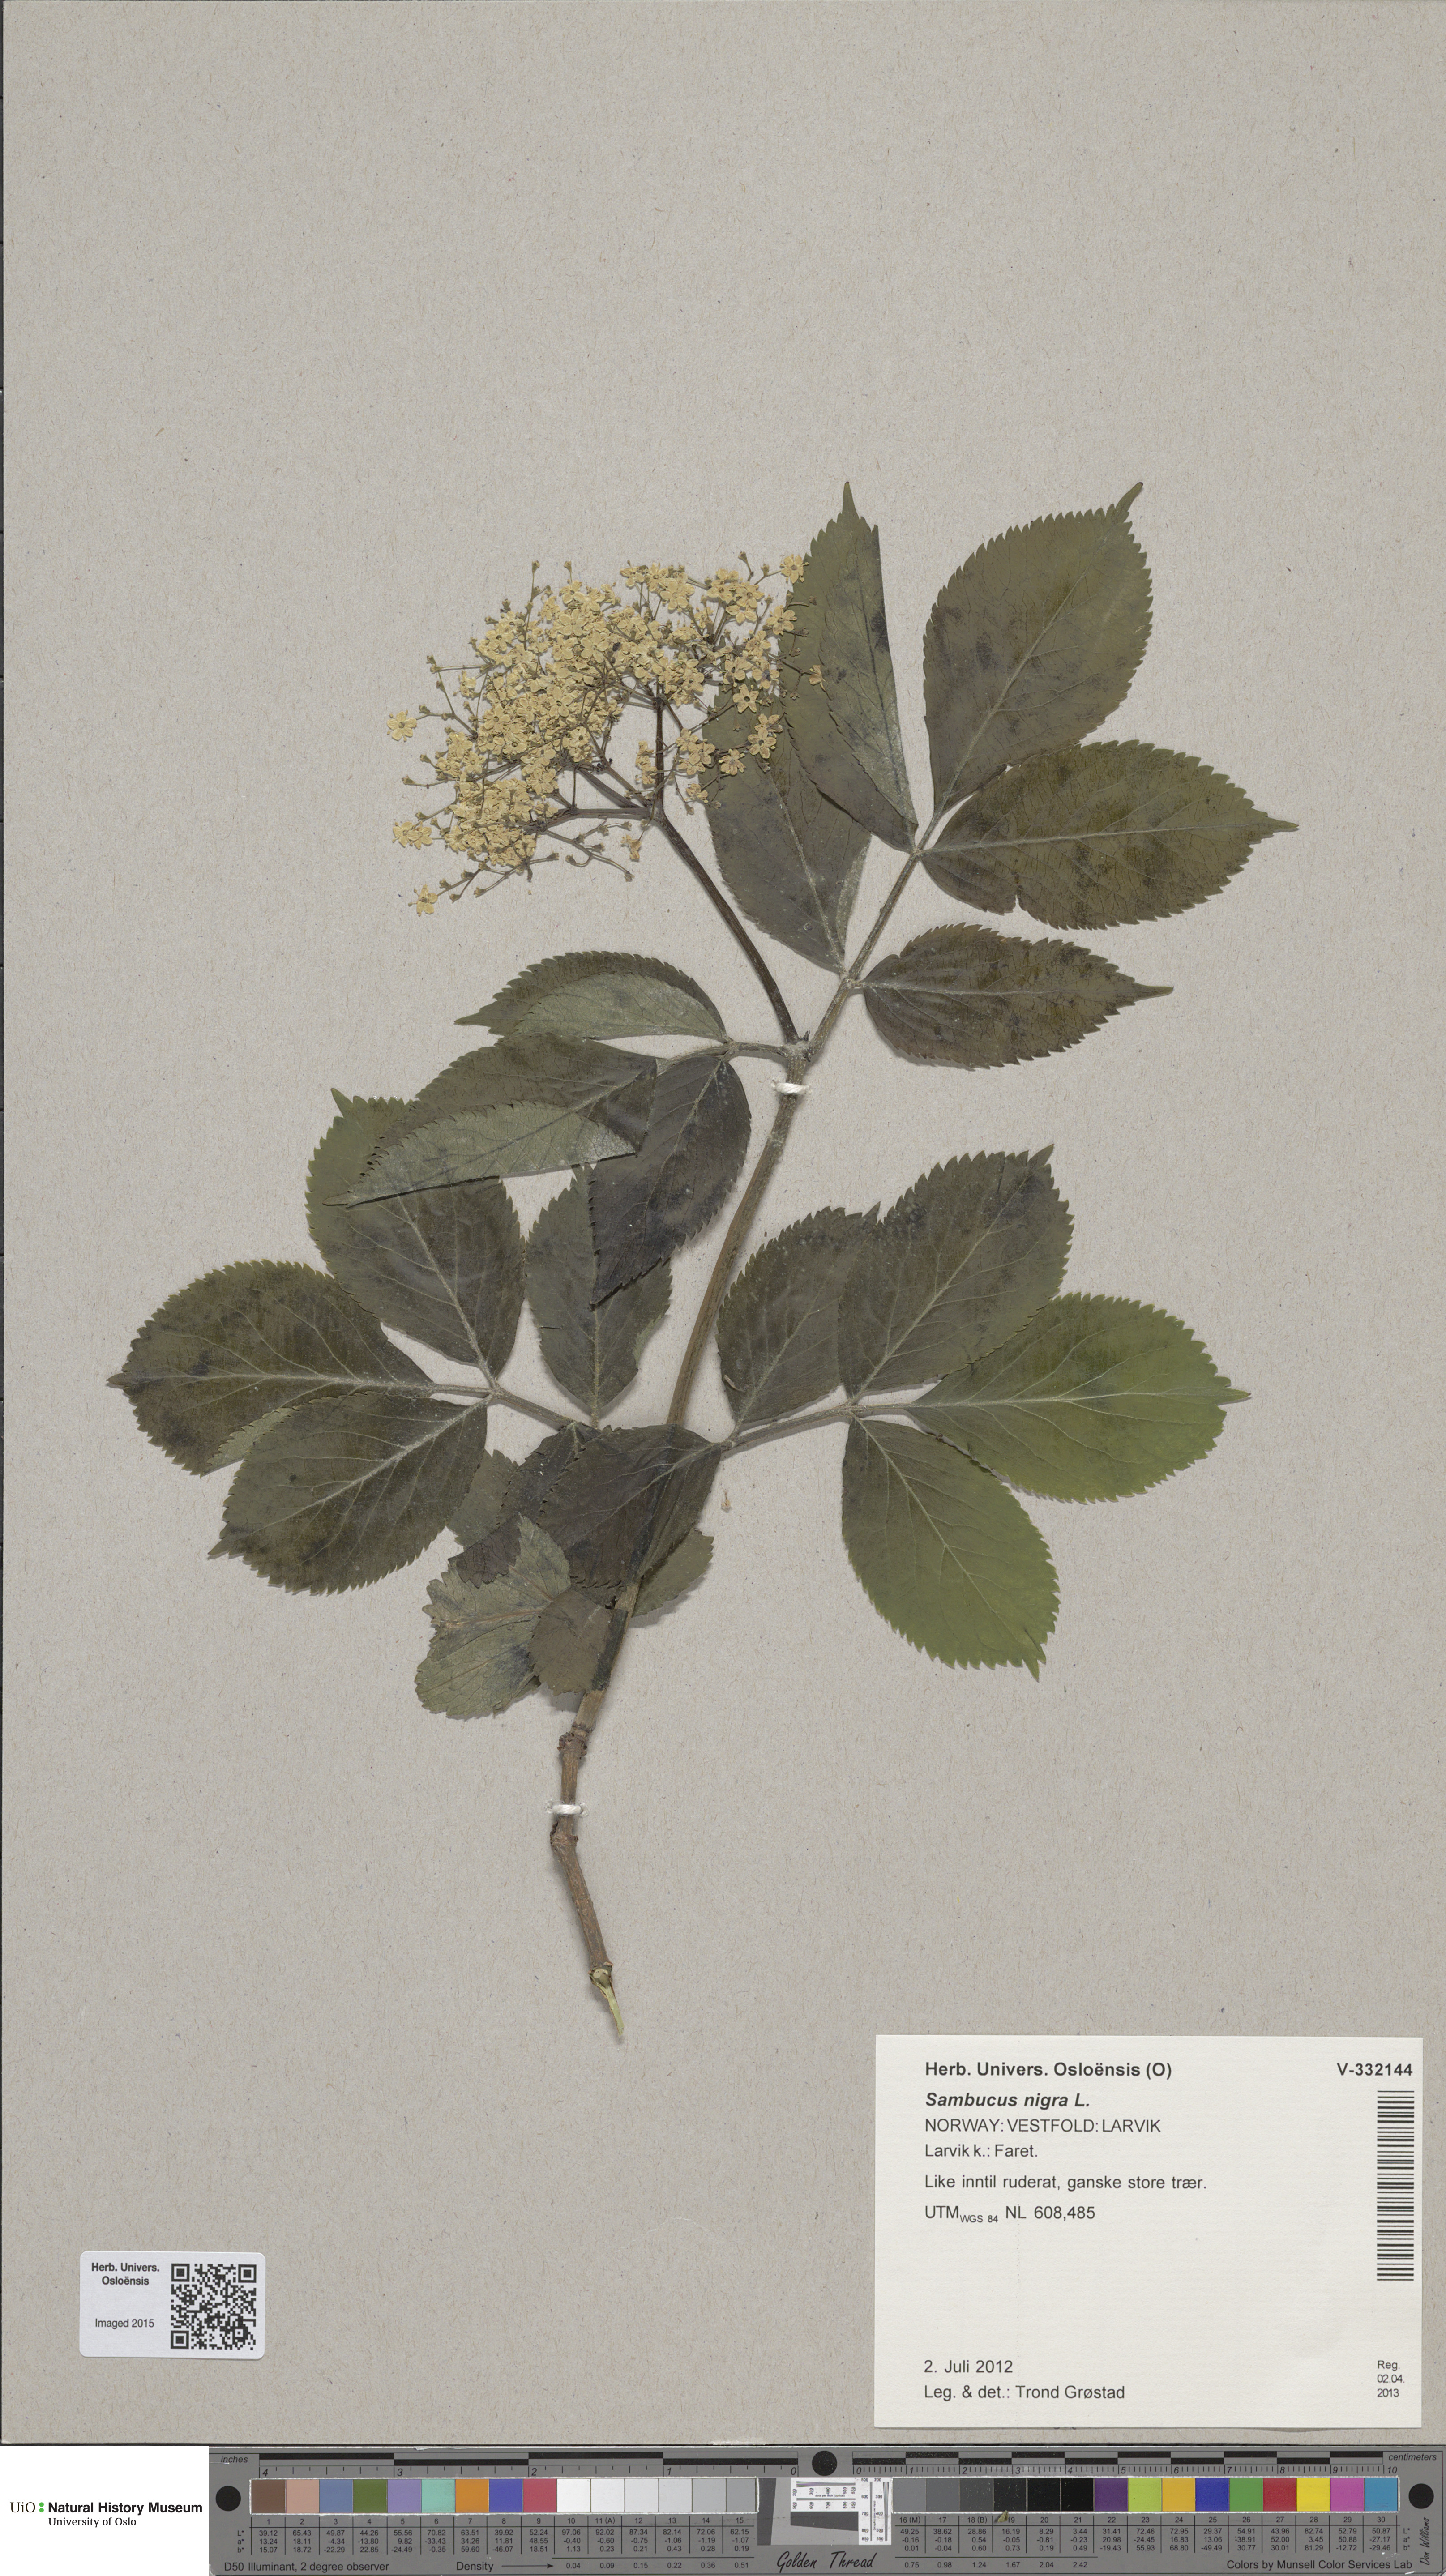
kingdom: Plantae
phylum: Tracheophyta
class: Magnoliopsida
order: Dipsacales
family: Viburnaceae
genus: Sambucus
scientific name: Sambucus nigra
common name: Elder
